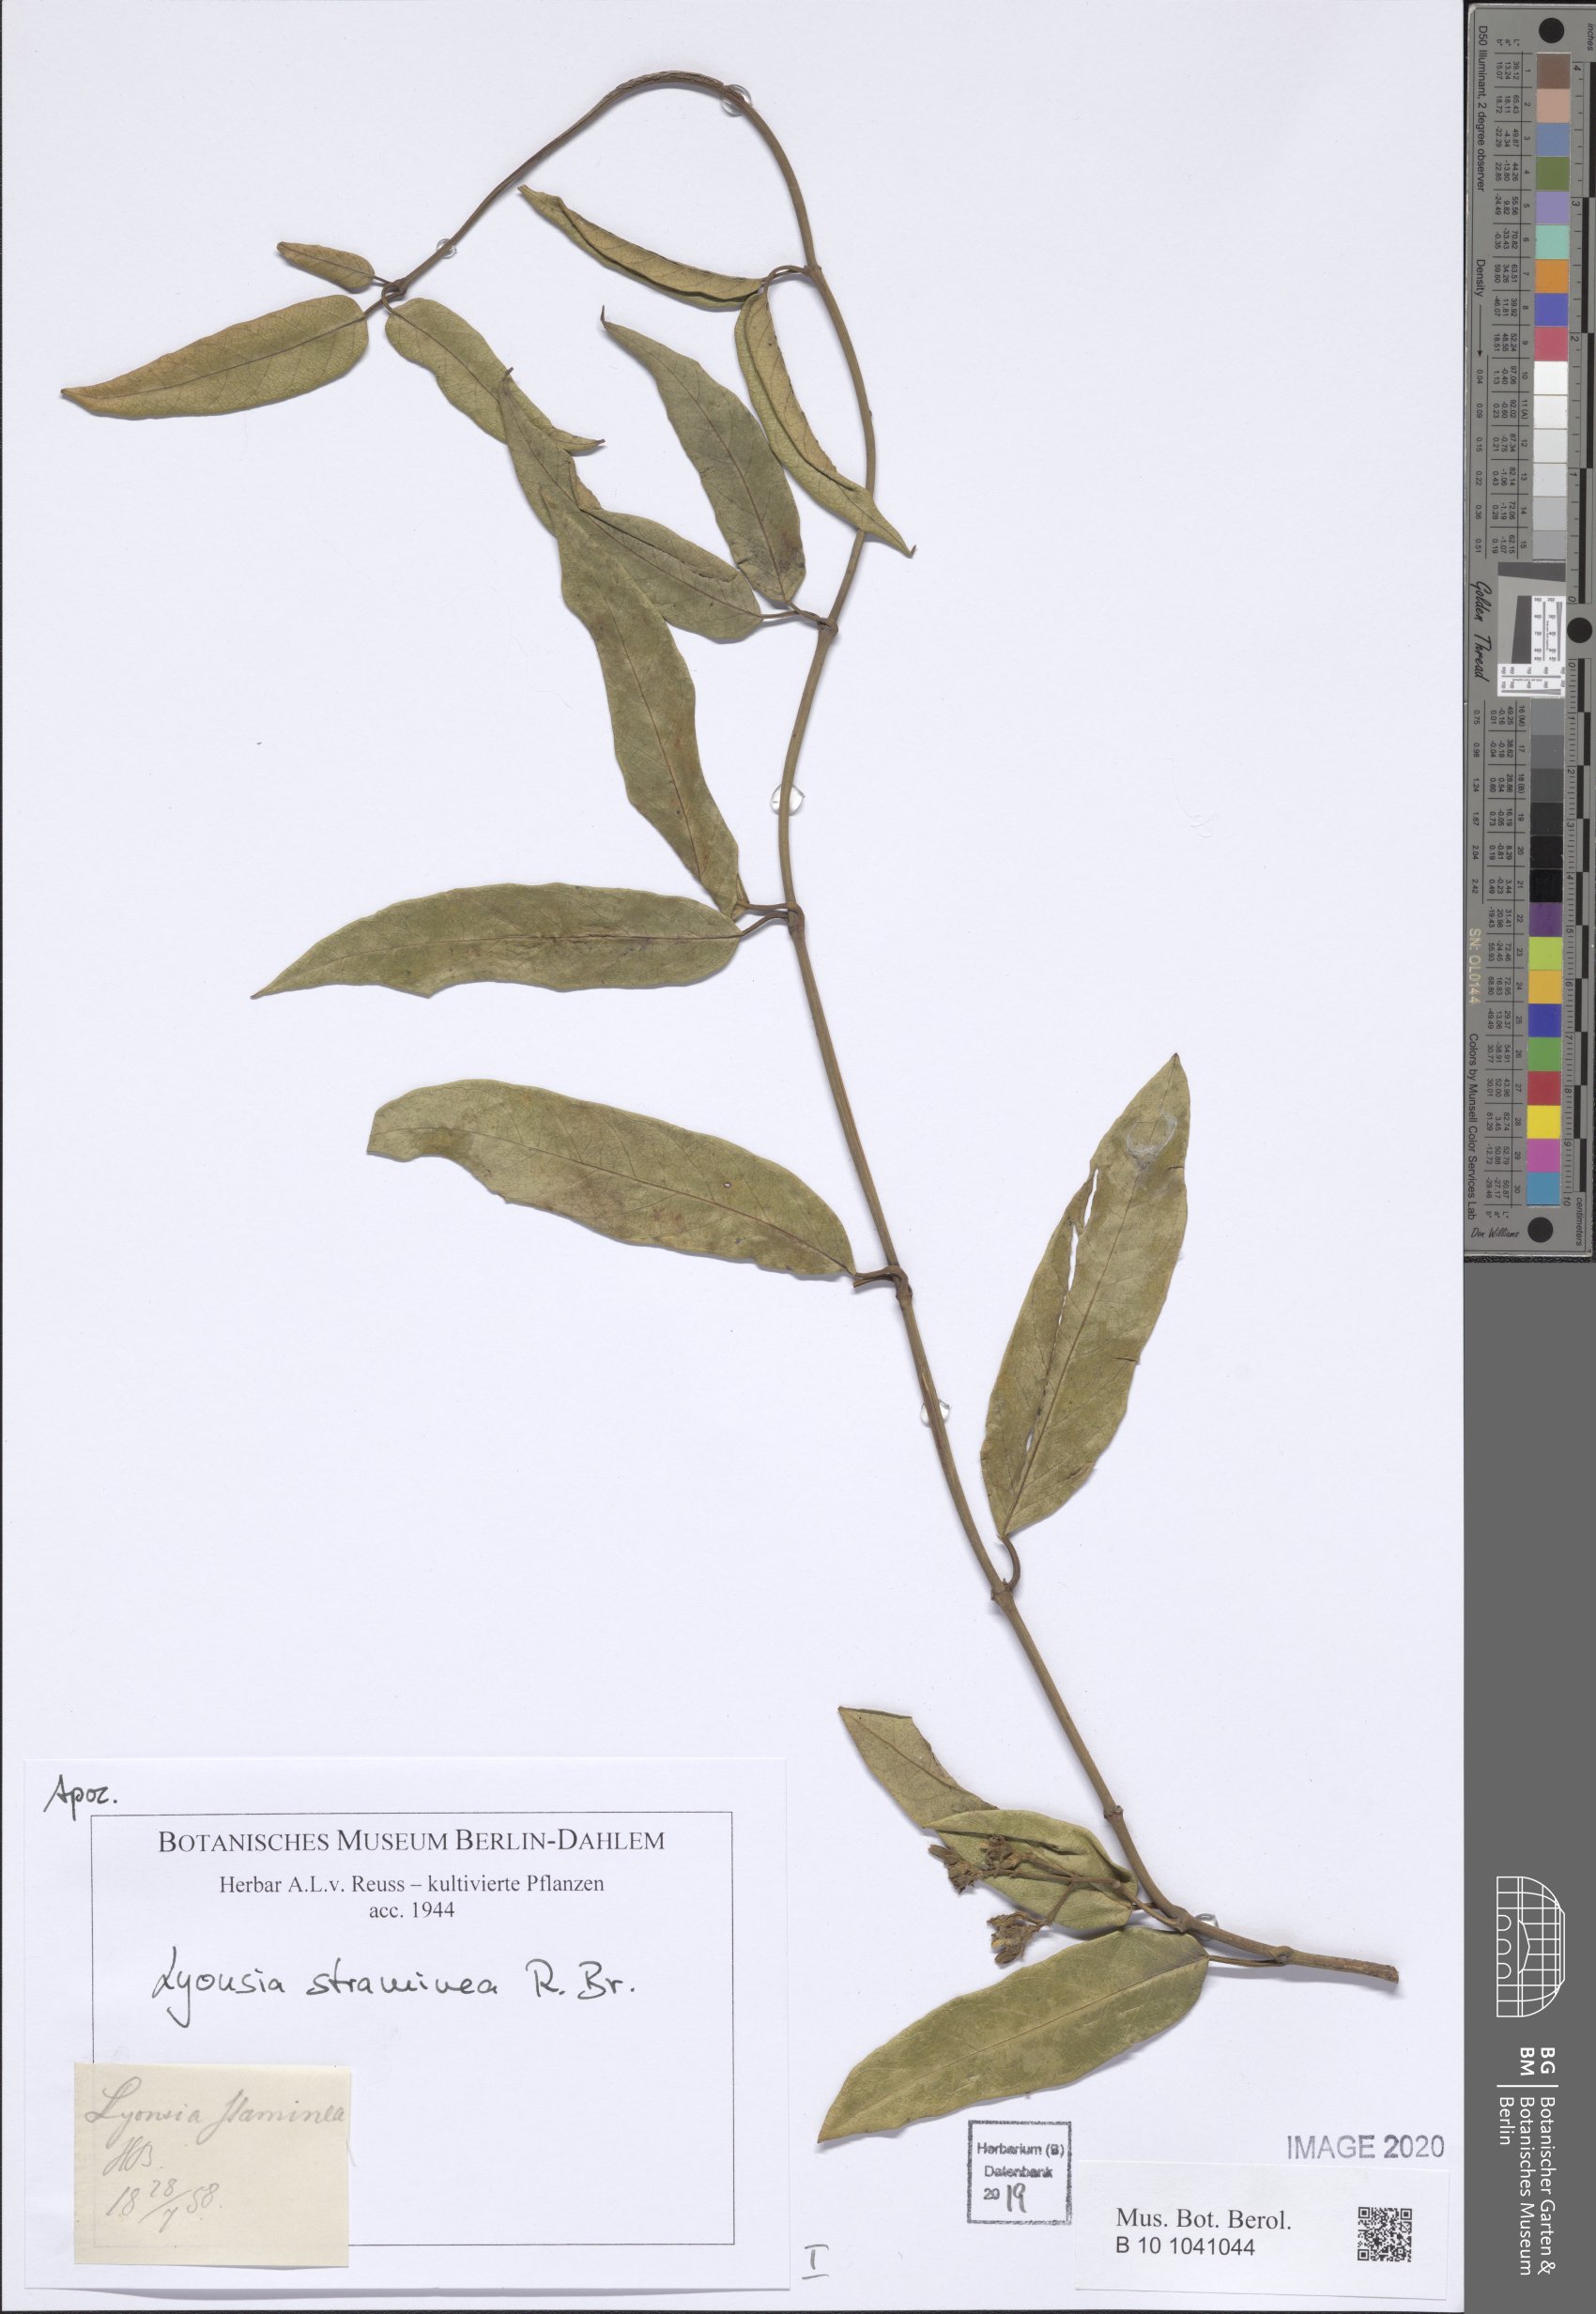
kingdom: Plantae
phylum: Tracheophyta
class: Magnoliopsida
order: Gentianales
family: Apocynaceae
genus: Parsonsia
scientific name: Parsonsia straminea
